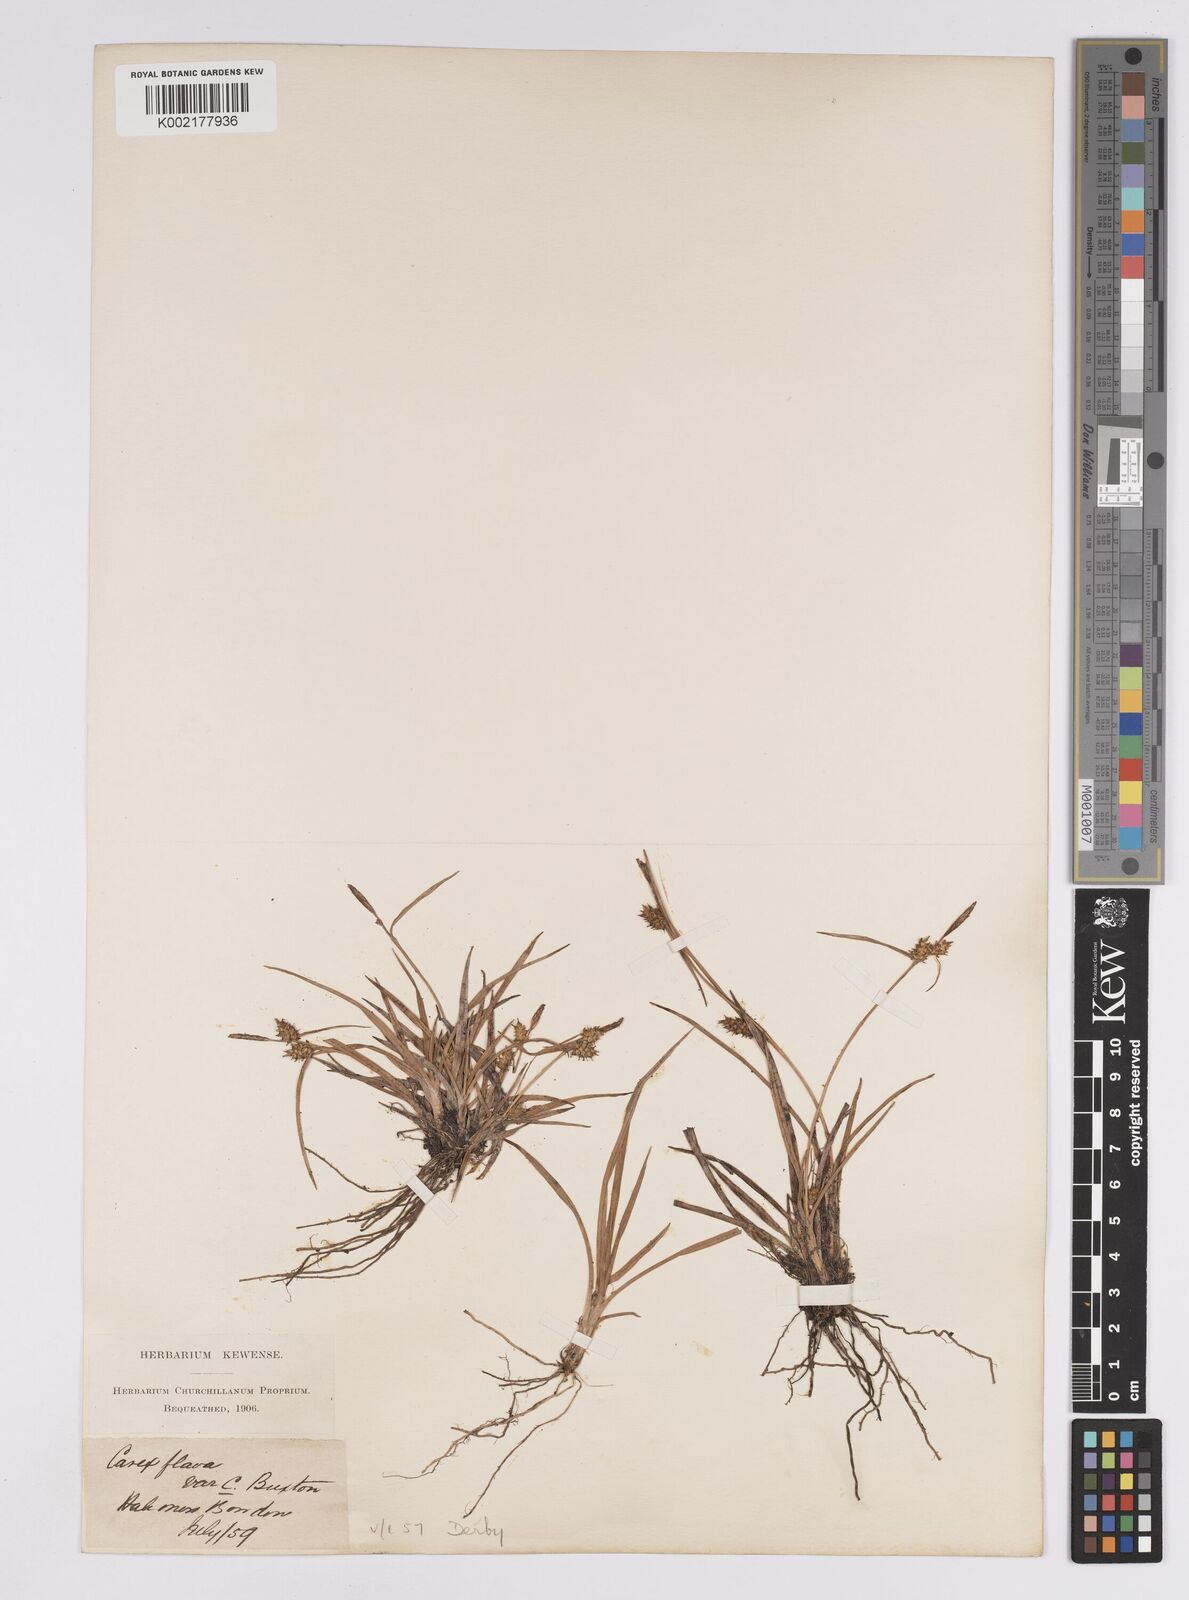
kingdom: Plantae
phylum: Tracheophyta
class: Liliopsida
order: Poales
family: Cyperaceae
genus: Carex
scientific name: Carex demissa
